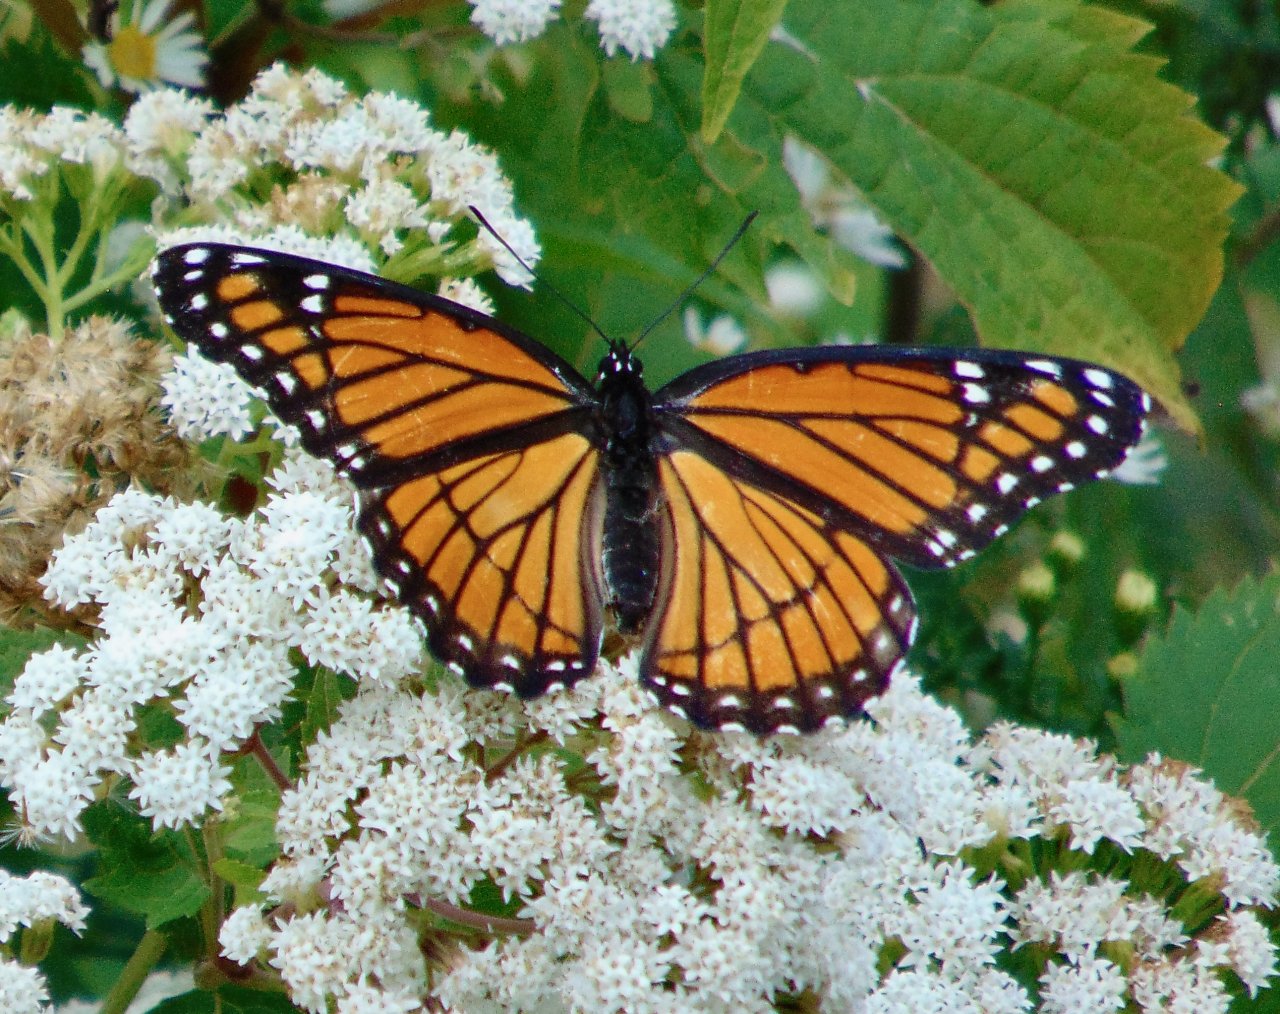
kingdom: Animalia
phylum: Arthropoda
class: Insecta
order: Lepidoptera
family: Nymphalidae
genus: Limenitis
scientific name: Limenitis archippus
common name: Viceroy
